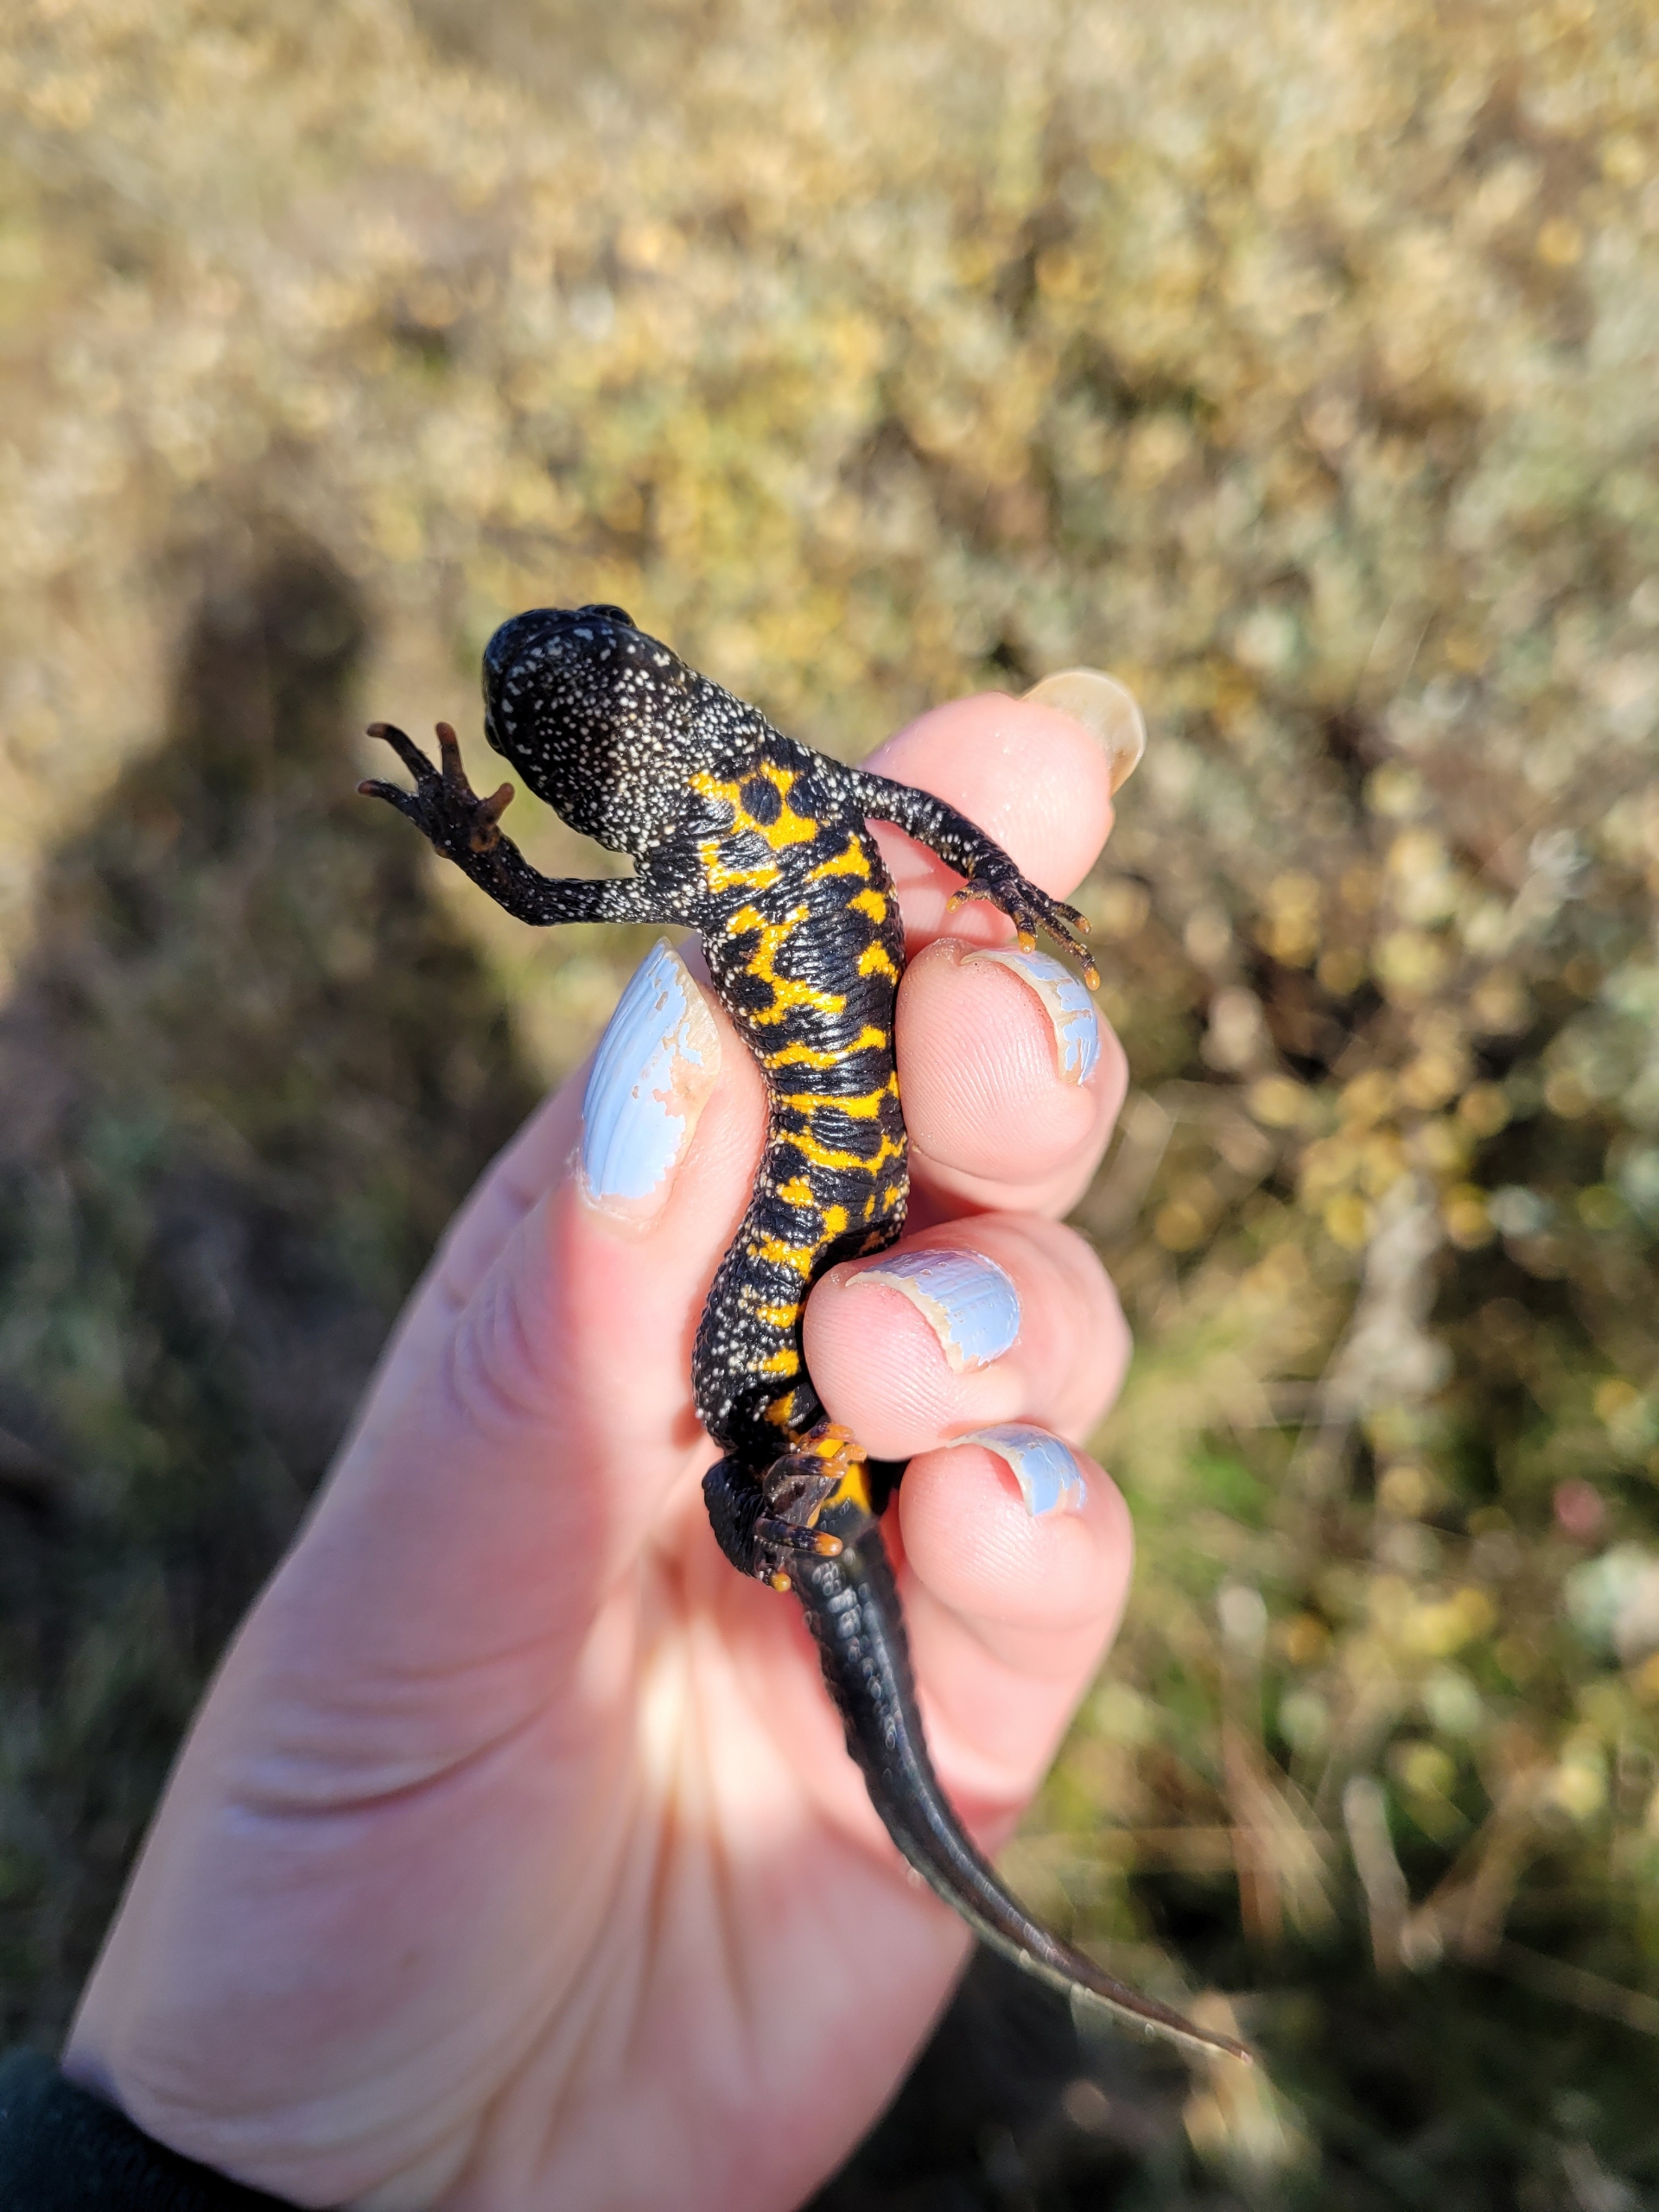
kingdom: Animalia
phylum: Chordata
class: Amphibia
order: Caudata
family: Salamandridae
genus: Triturus
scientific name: Triturus cristatus
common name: Stor vandsalamander
